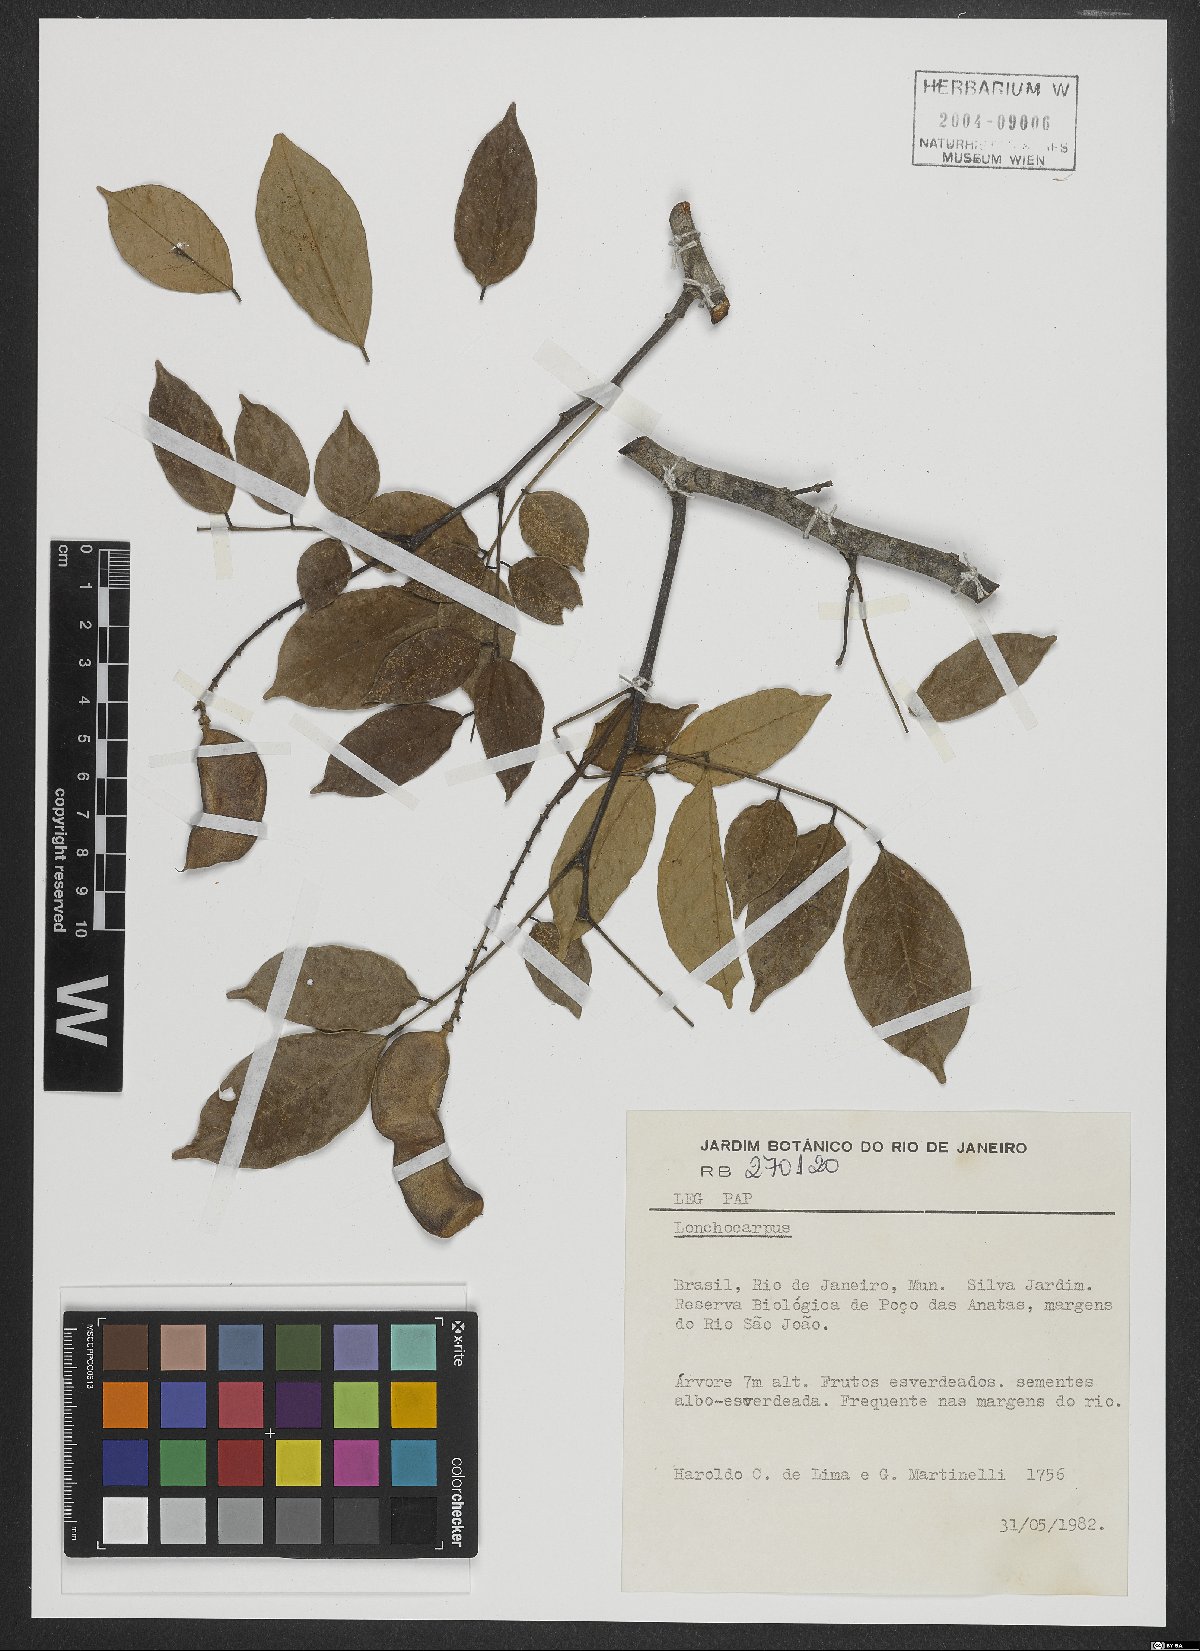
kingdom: Plantae
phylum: Tracheophyta
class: Magnoliopsida
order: Fabales
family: Fabaceae
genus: Lonchocarpus
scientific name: Lonchocarpus
